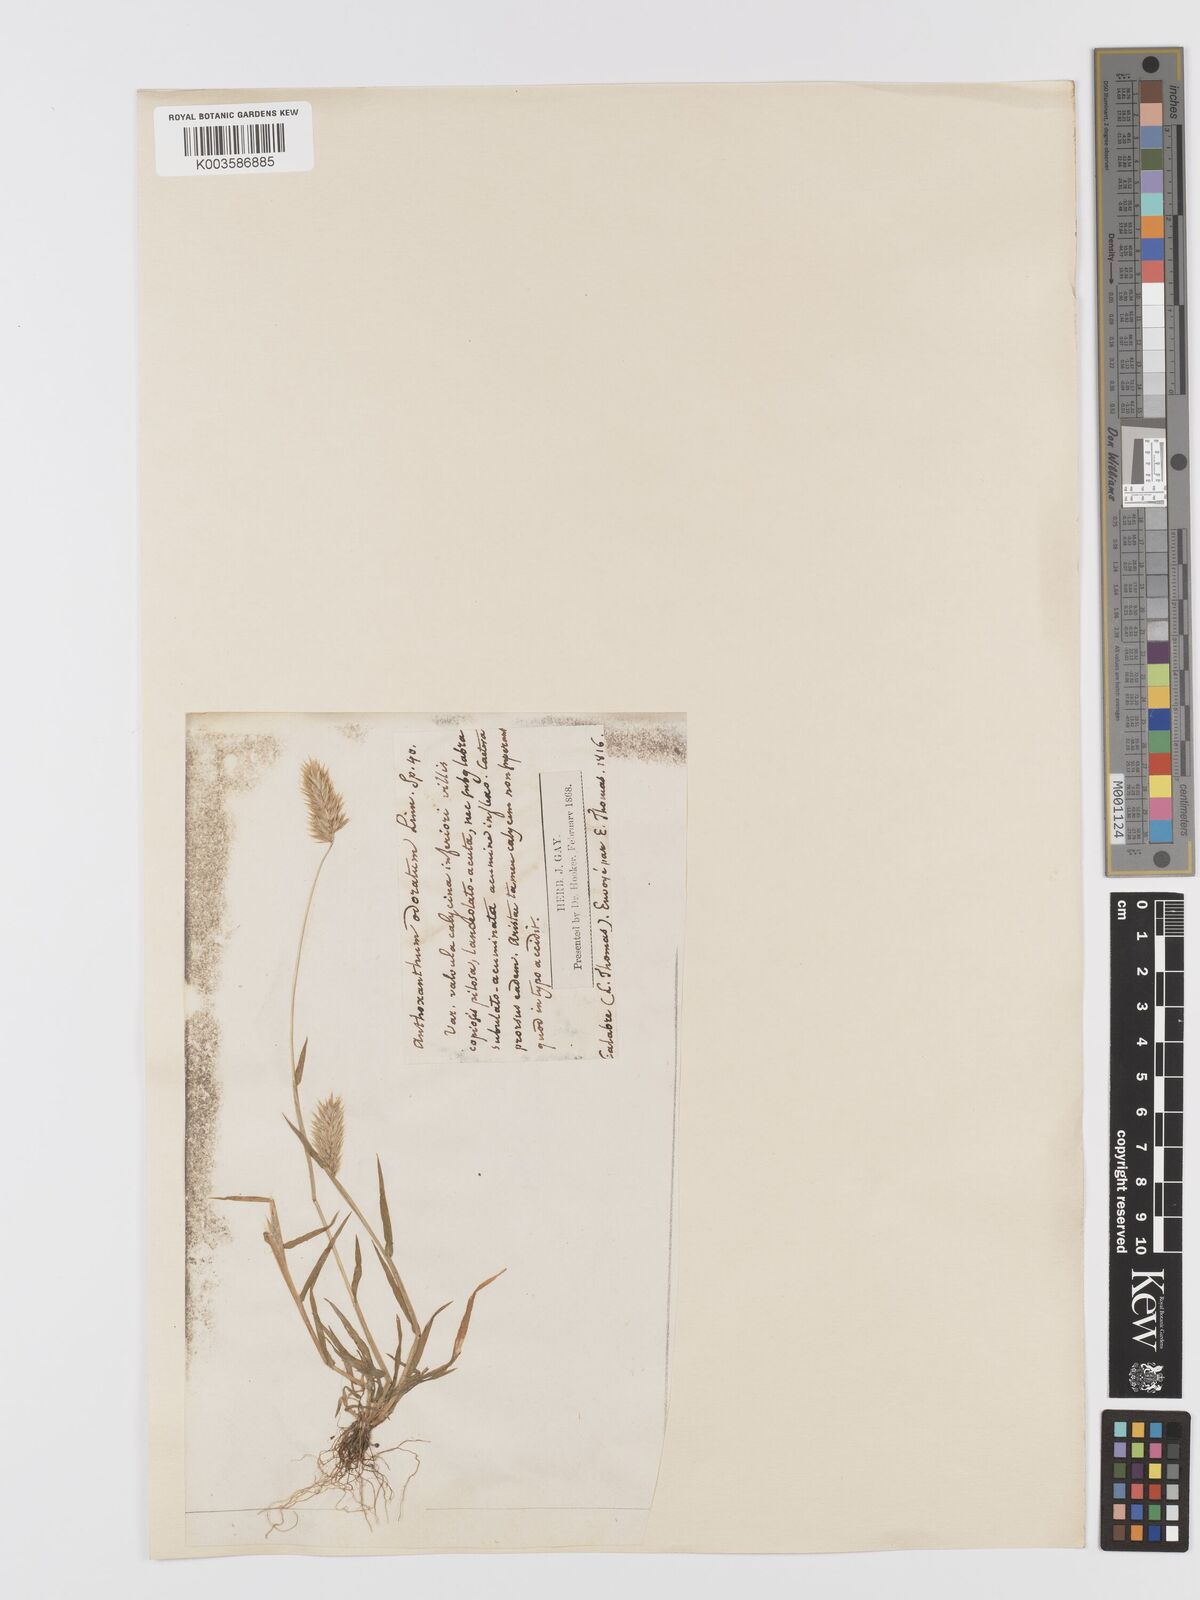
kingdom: Plantae
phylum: Tracheophyta
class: Liliopsida
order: Poales
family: Poaceae
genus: Anthoxanthum
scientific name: Anthoxanthum ovatum
